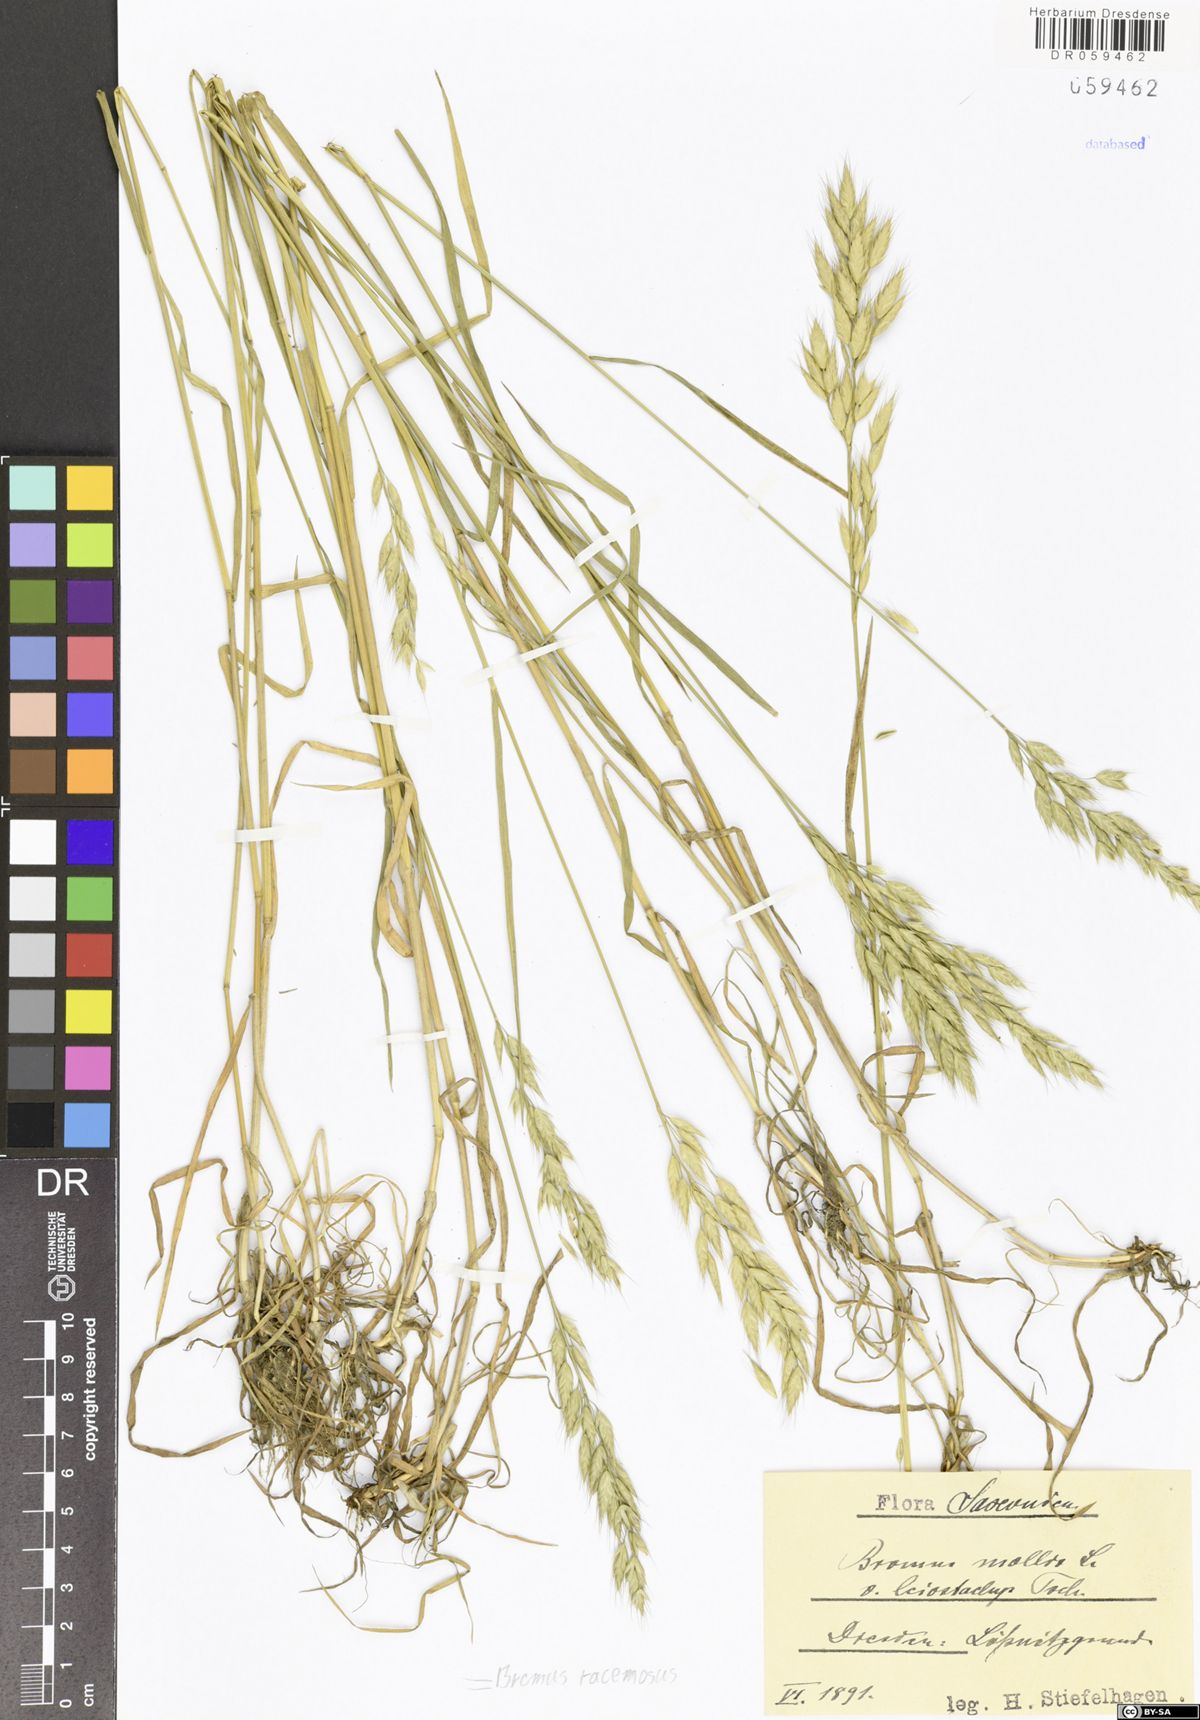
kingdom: Plantae
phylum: Tracheophyta
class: Liliopsida
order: Poales
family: Poaceae
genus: Bromus
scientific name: Bromus racemosus
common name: Bald brome
